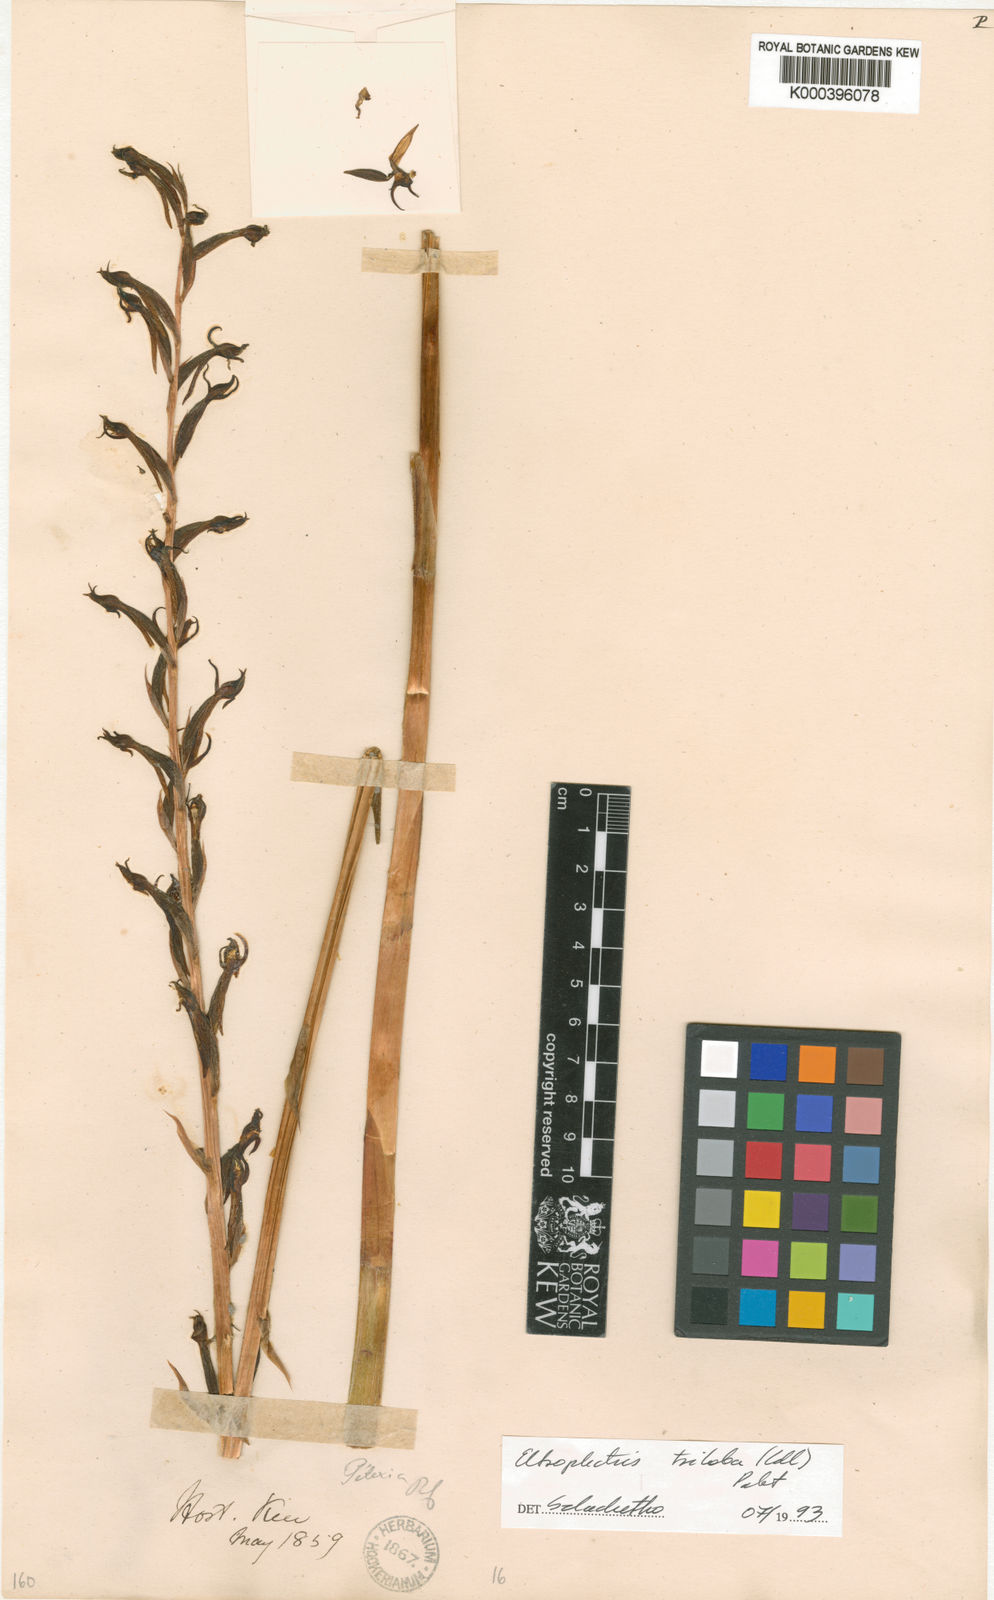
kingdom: Plantae
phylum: Tracheophyta
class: Liliopsida
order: Asparagales
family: Orchidaceae
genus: Eltroplectris
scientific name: Eltroplectris triloba
